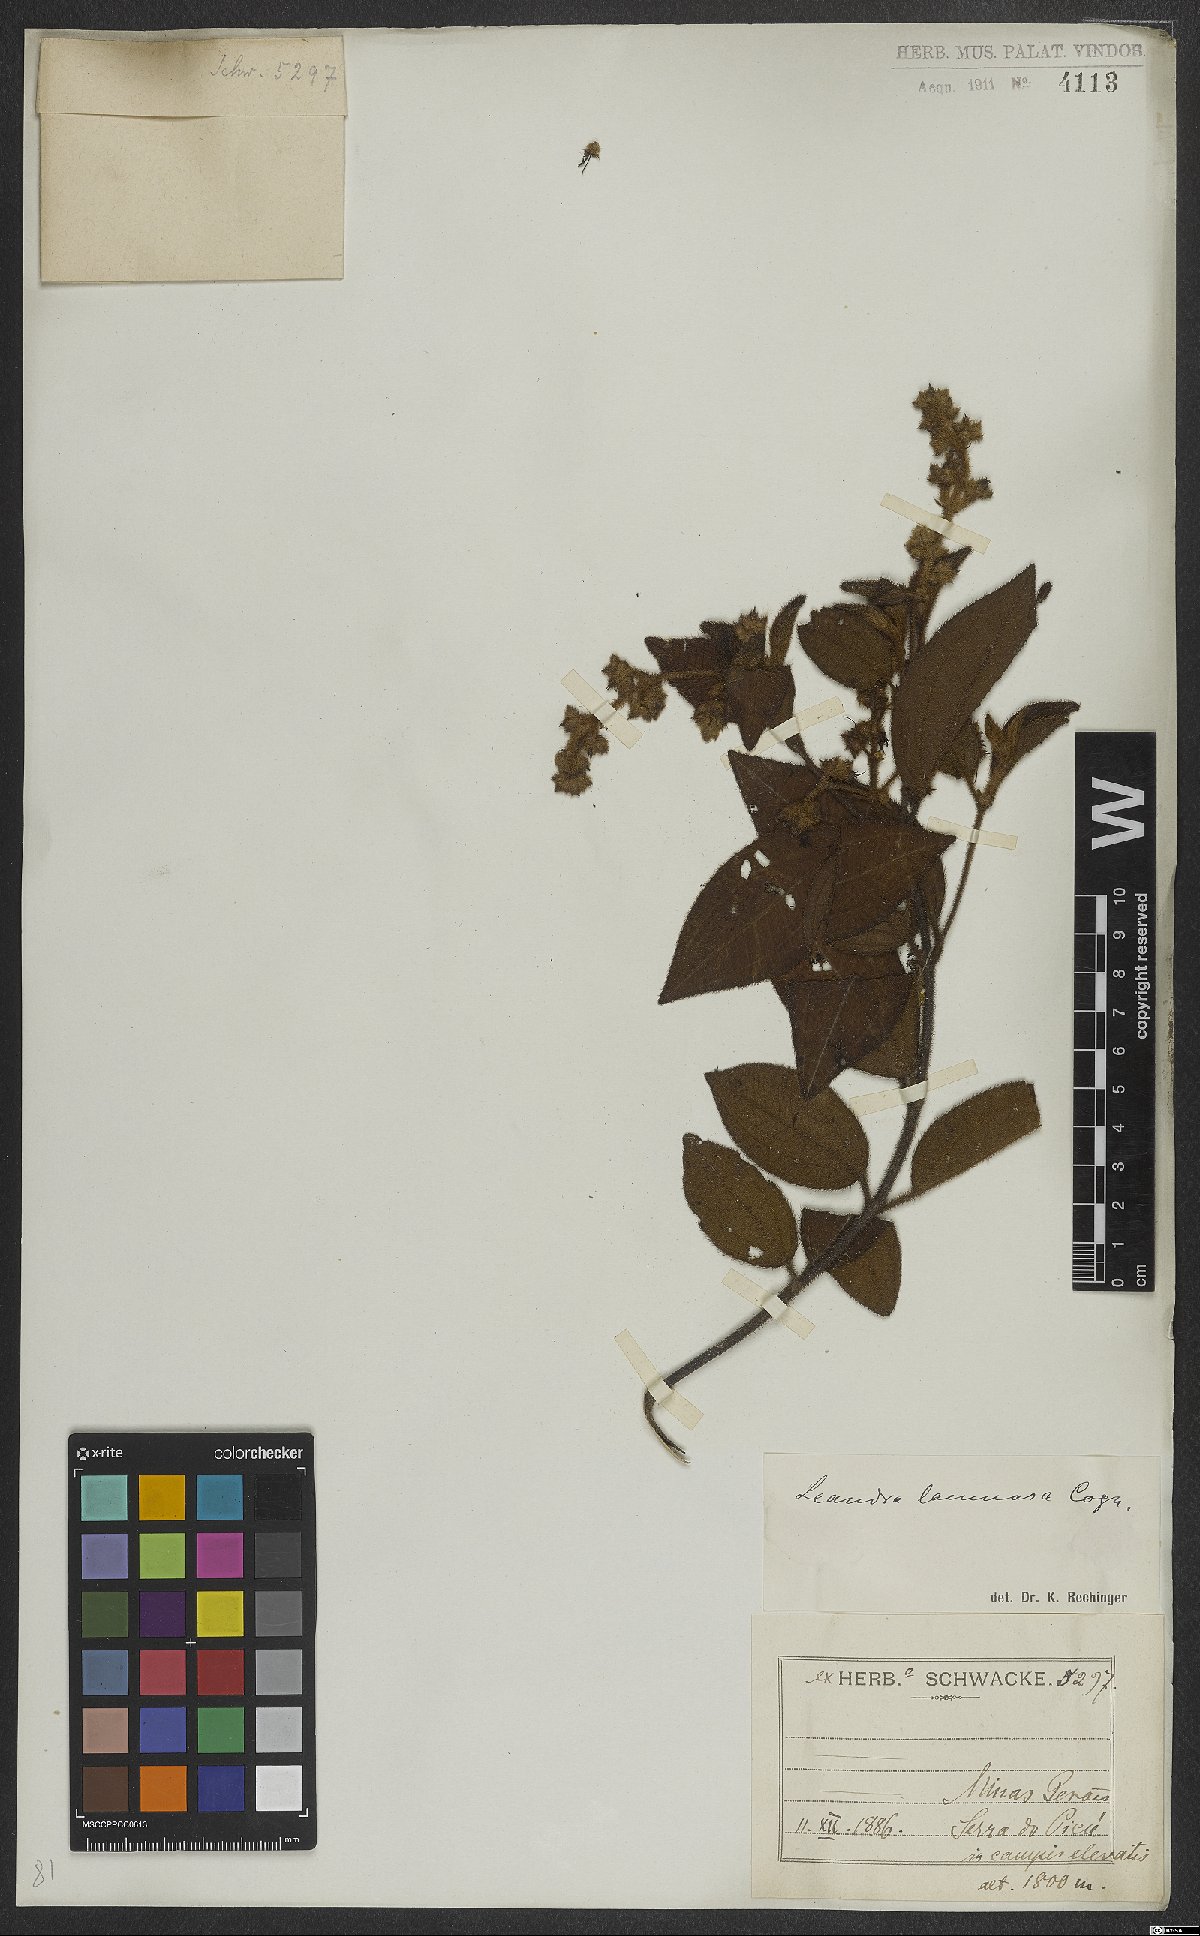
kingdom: Plantae
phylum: Tracheophyta
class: Magnoliopsida
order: Myrtales
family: Melastomataceae
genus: Miconia
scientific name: Miconia lacunosa
